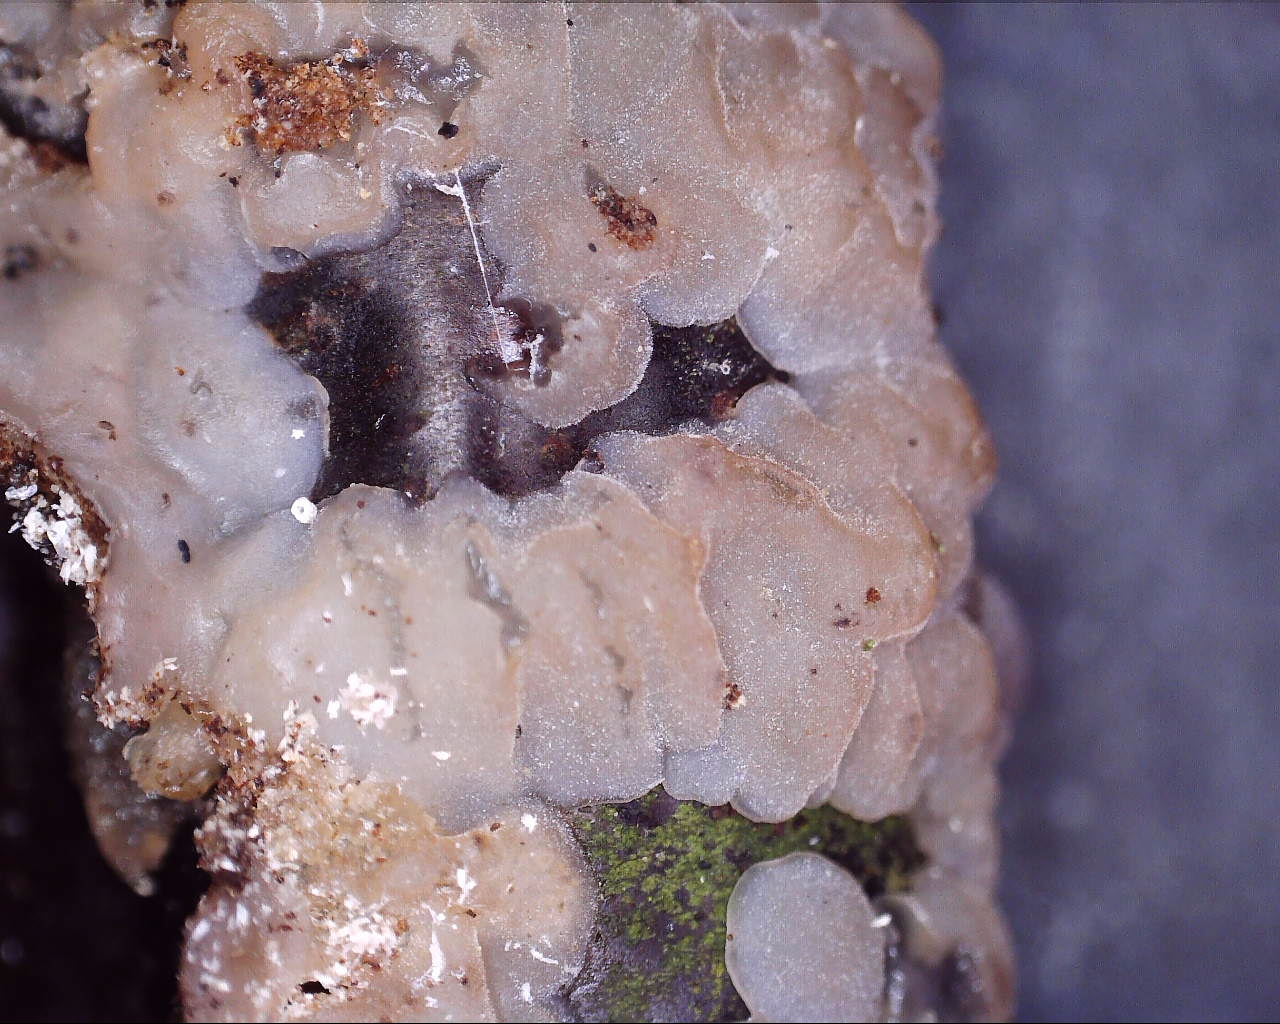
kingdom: Fungi
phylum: Basidiomycota
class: Agaricomycetes
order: Auriculariales
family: Hyaloriaceae
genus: Myxarium
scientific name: Myxarium
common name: bævretop
